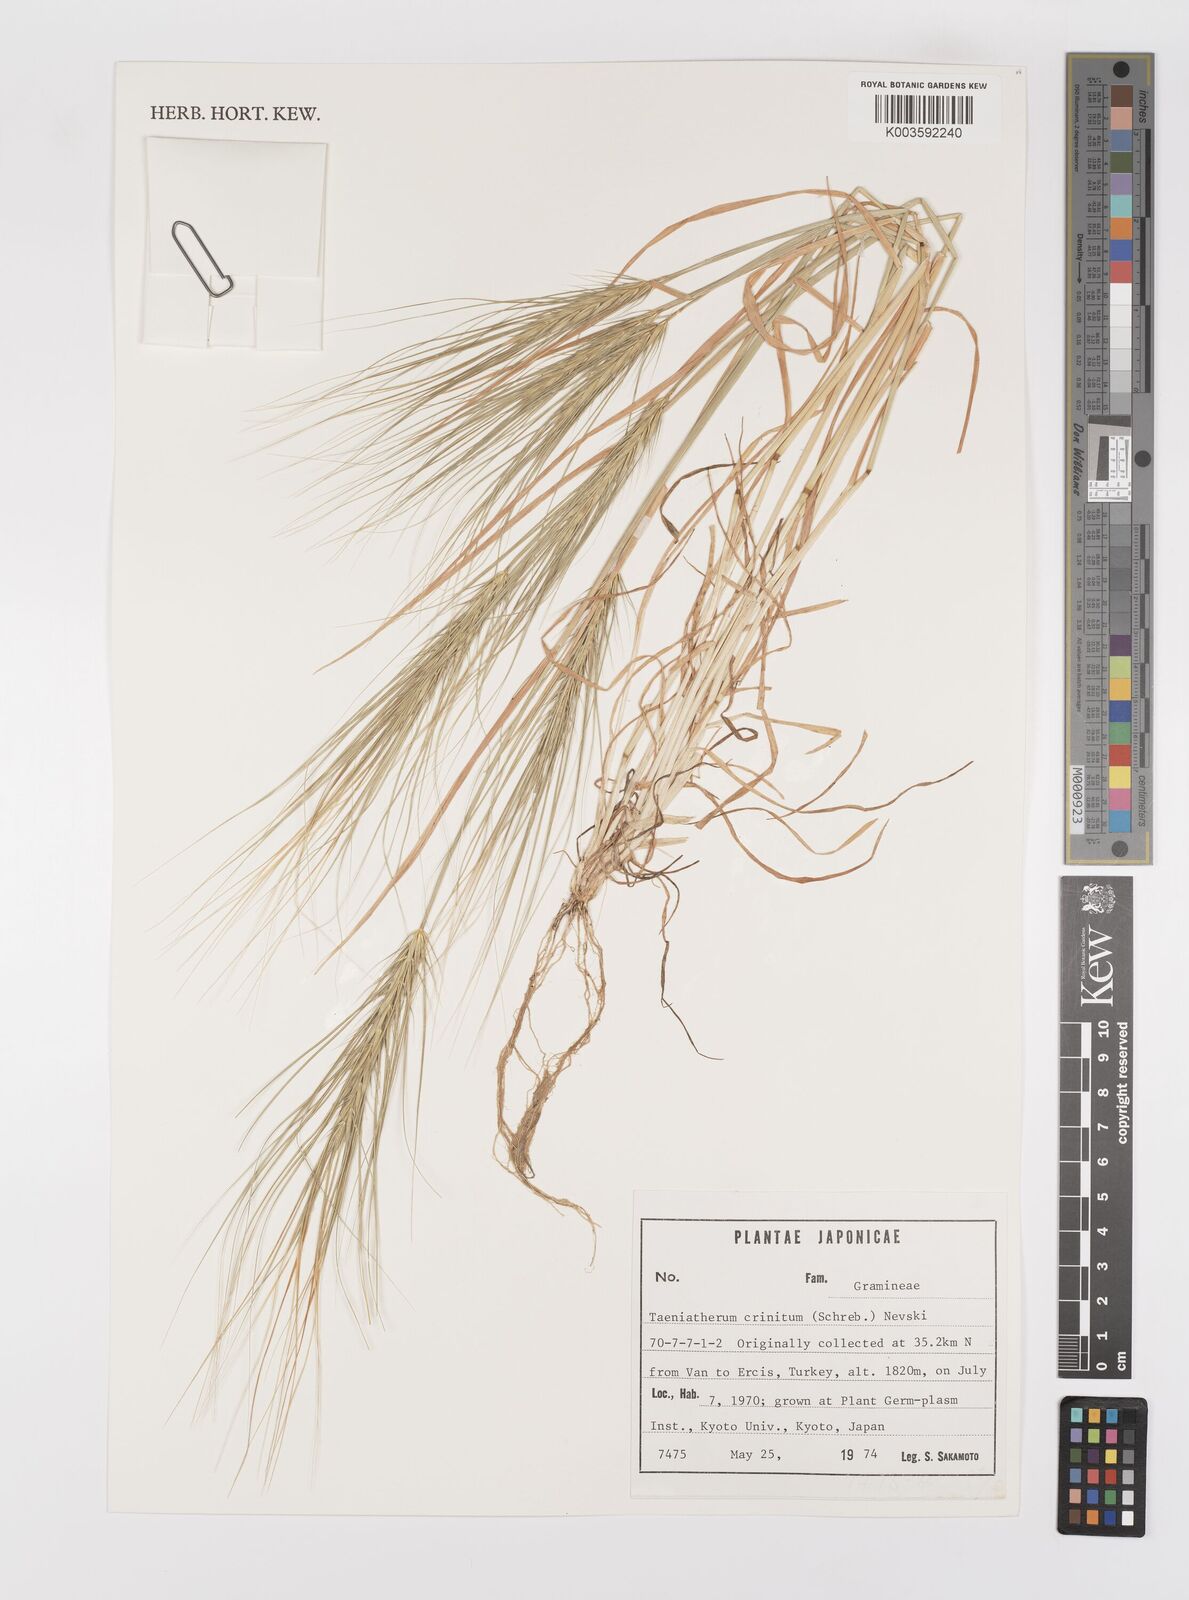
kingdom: Plantae
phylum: Tracheophyta
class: Liliopsida
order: Poales
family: Poaceae
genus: Taeniatherum
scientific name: Taeniatherum caput-medusae
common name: Medusahead
